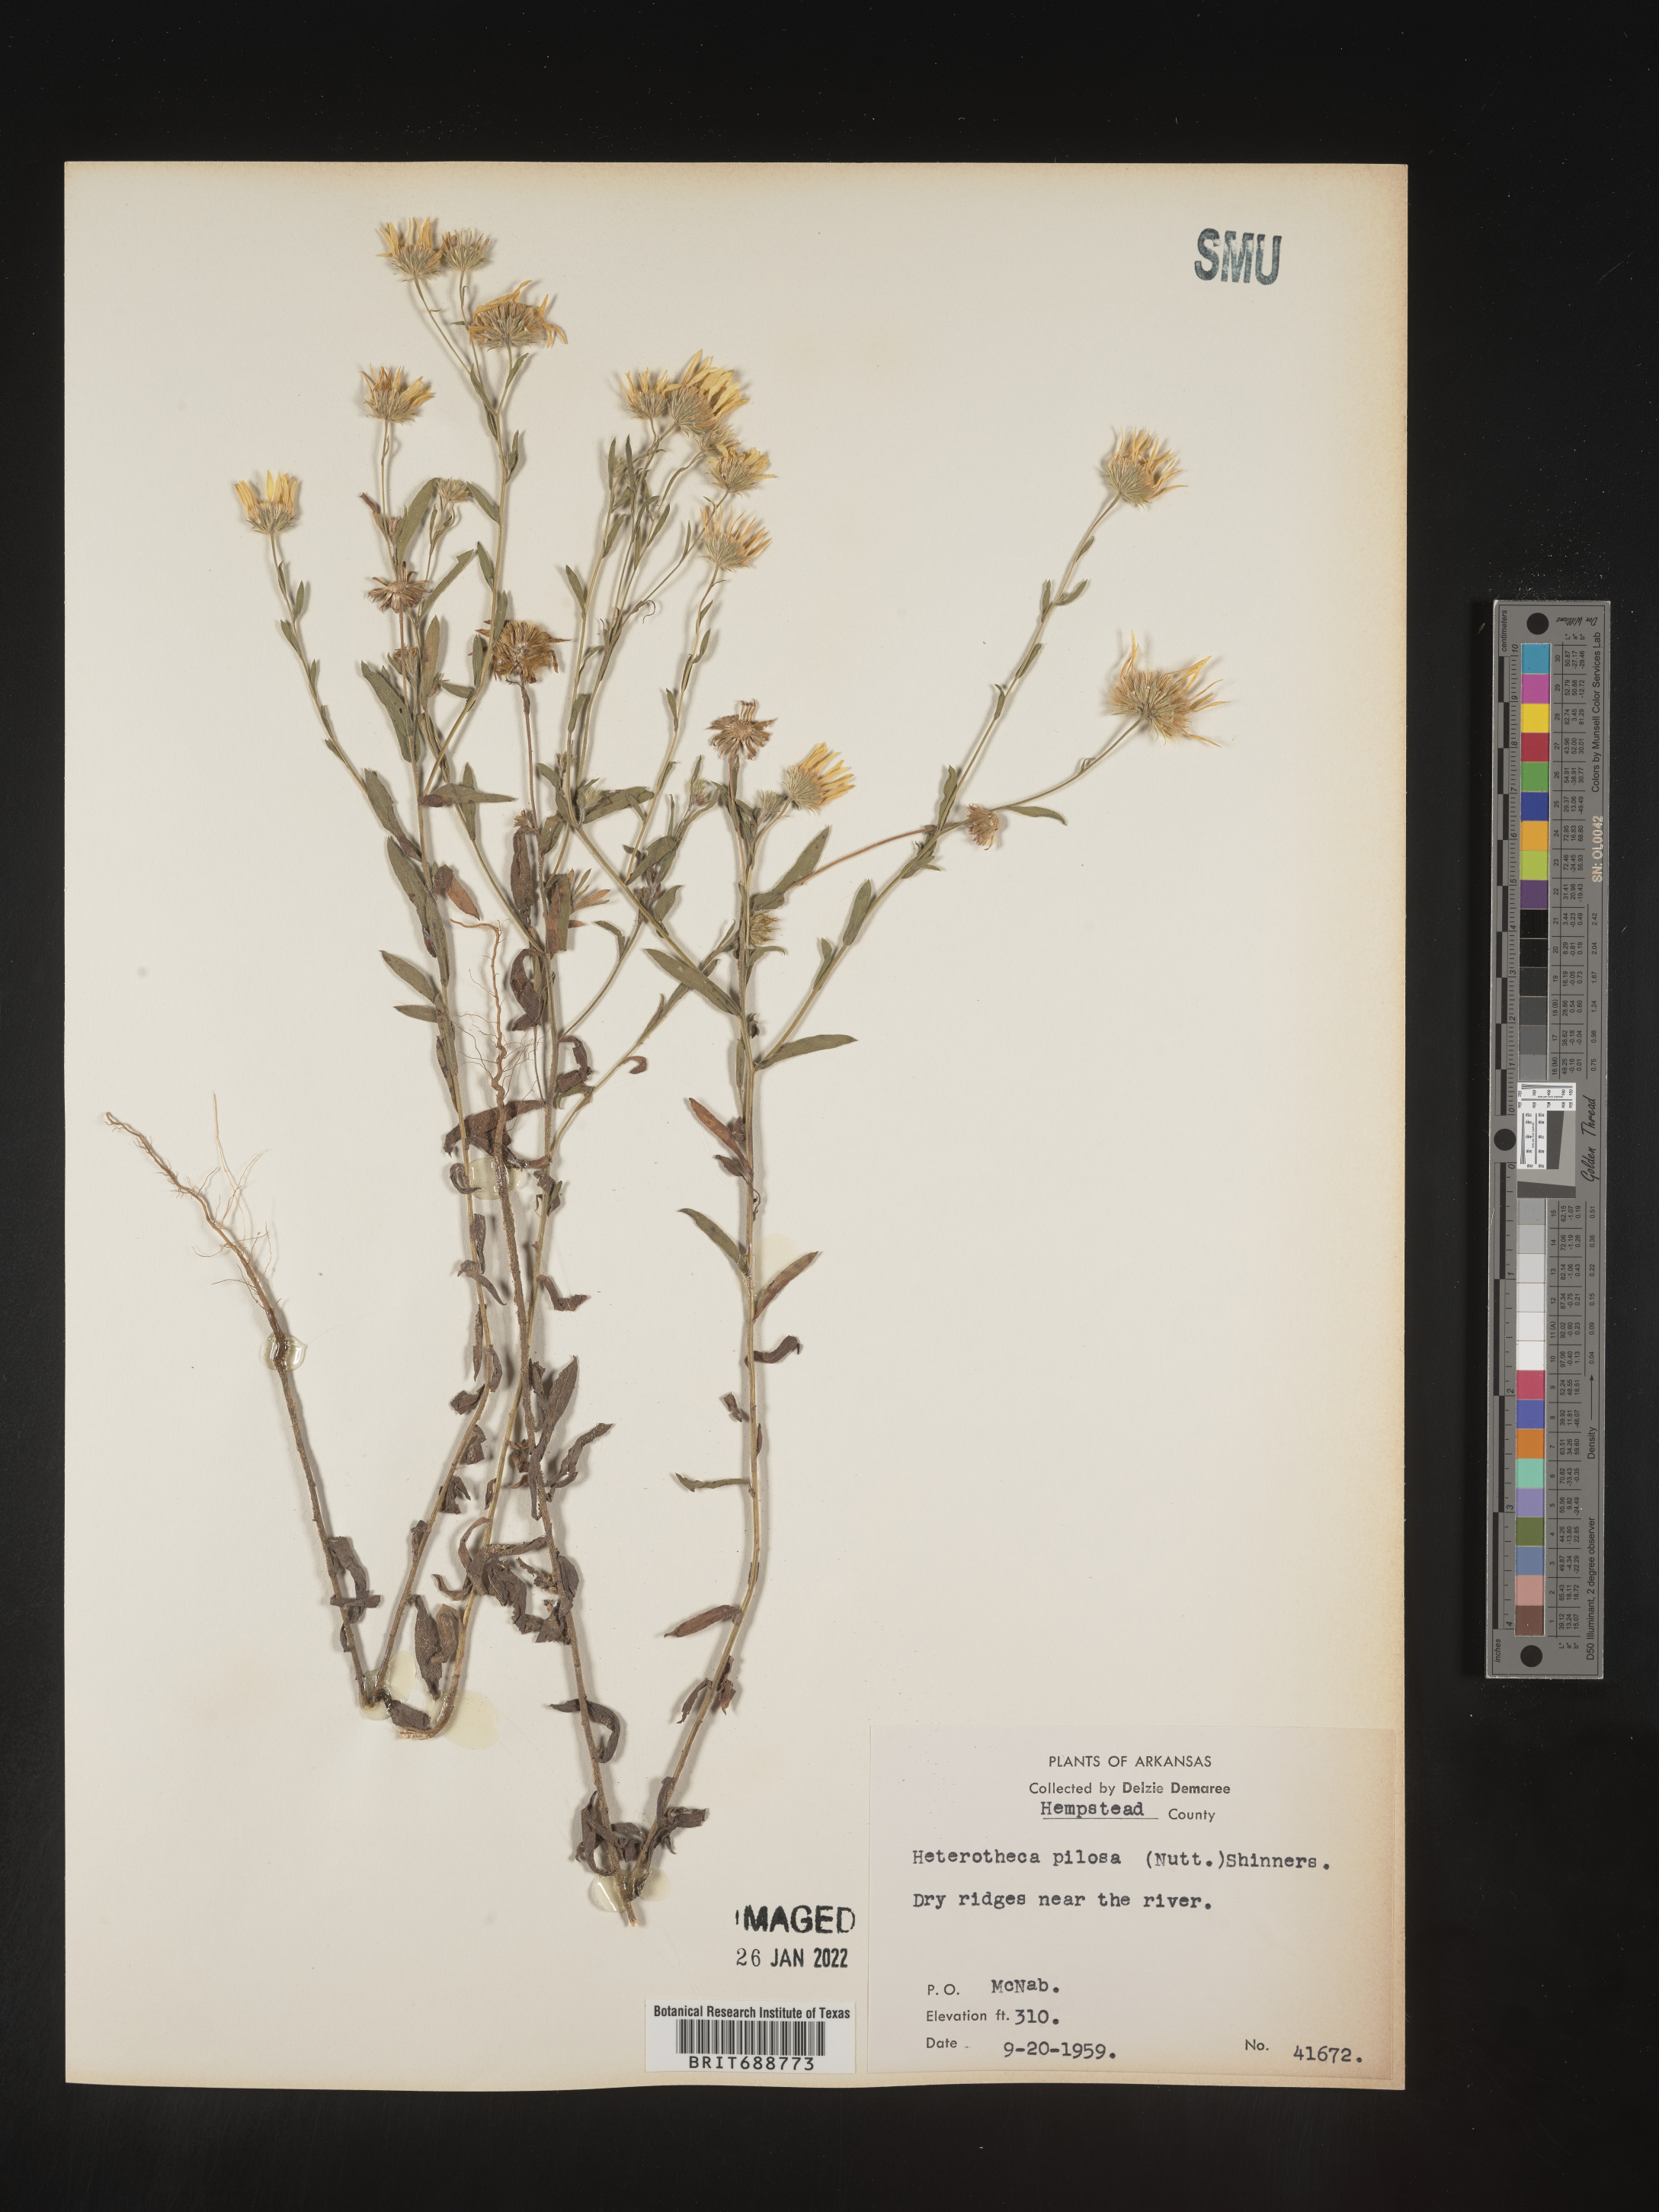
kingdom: Plantae
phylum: Tracheophyta
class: Magnoliopsida
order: Asterales
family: Asteraceae
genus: Bradburia
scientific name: Bradburia pilosa
